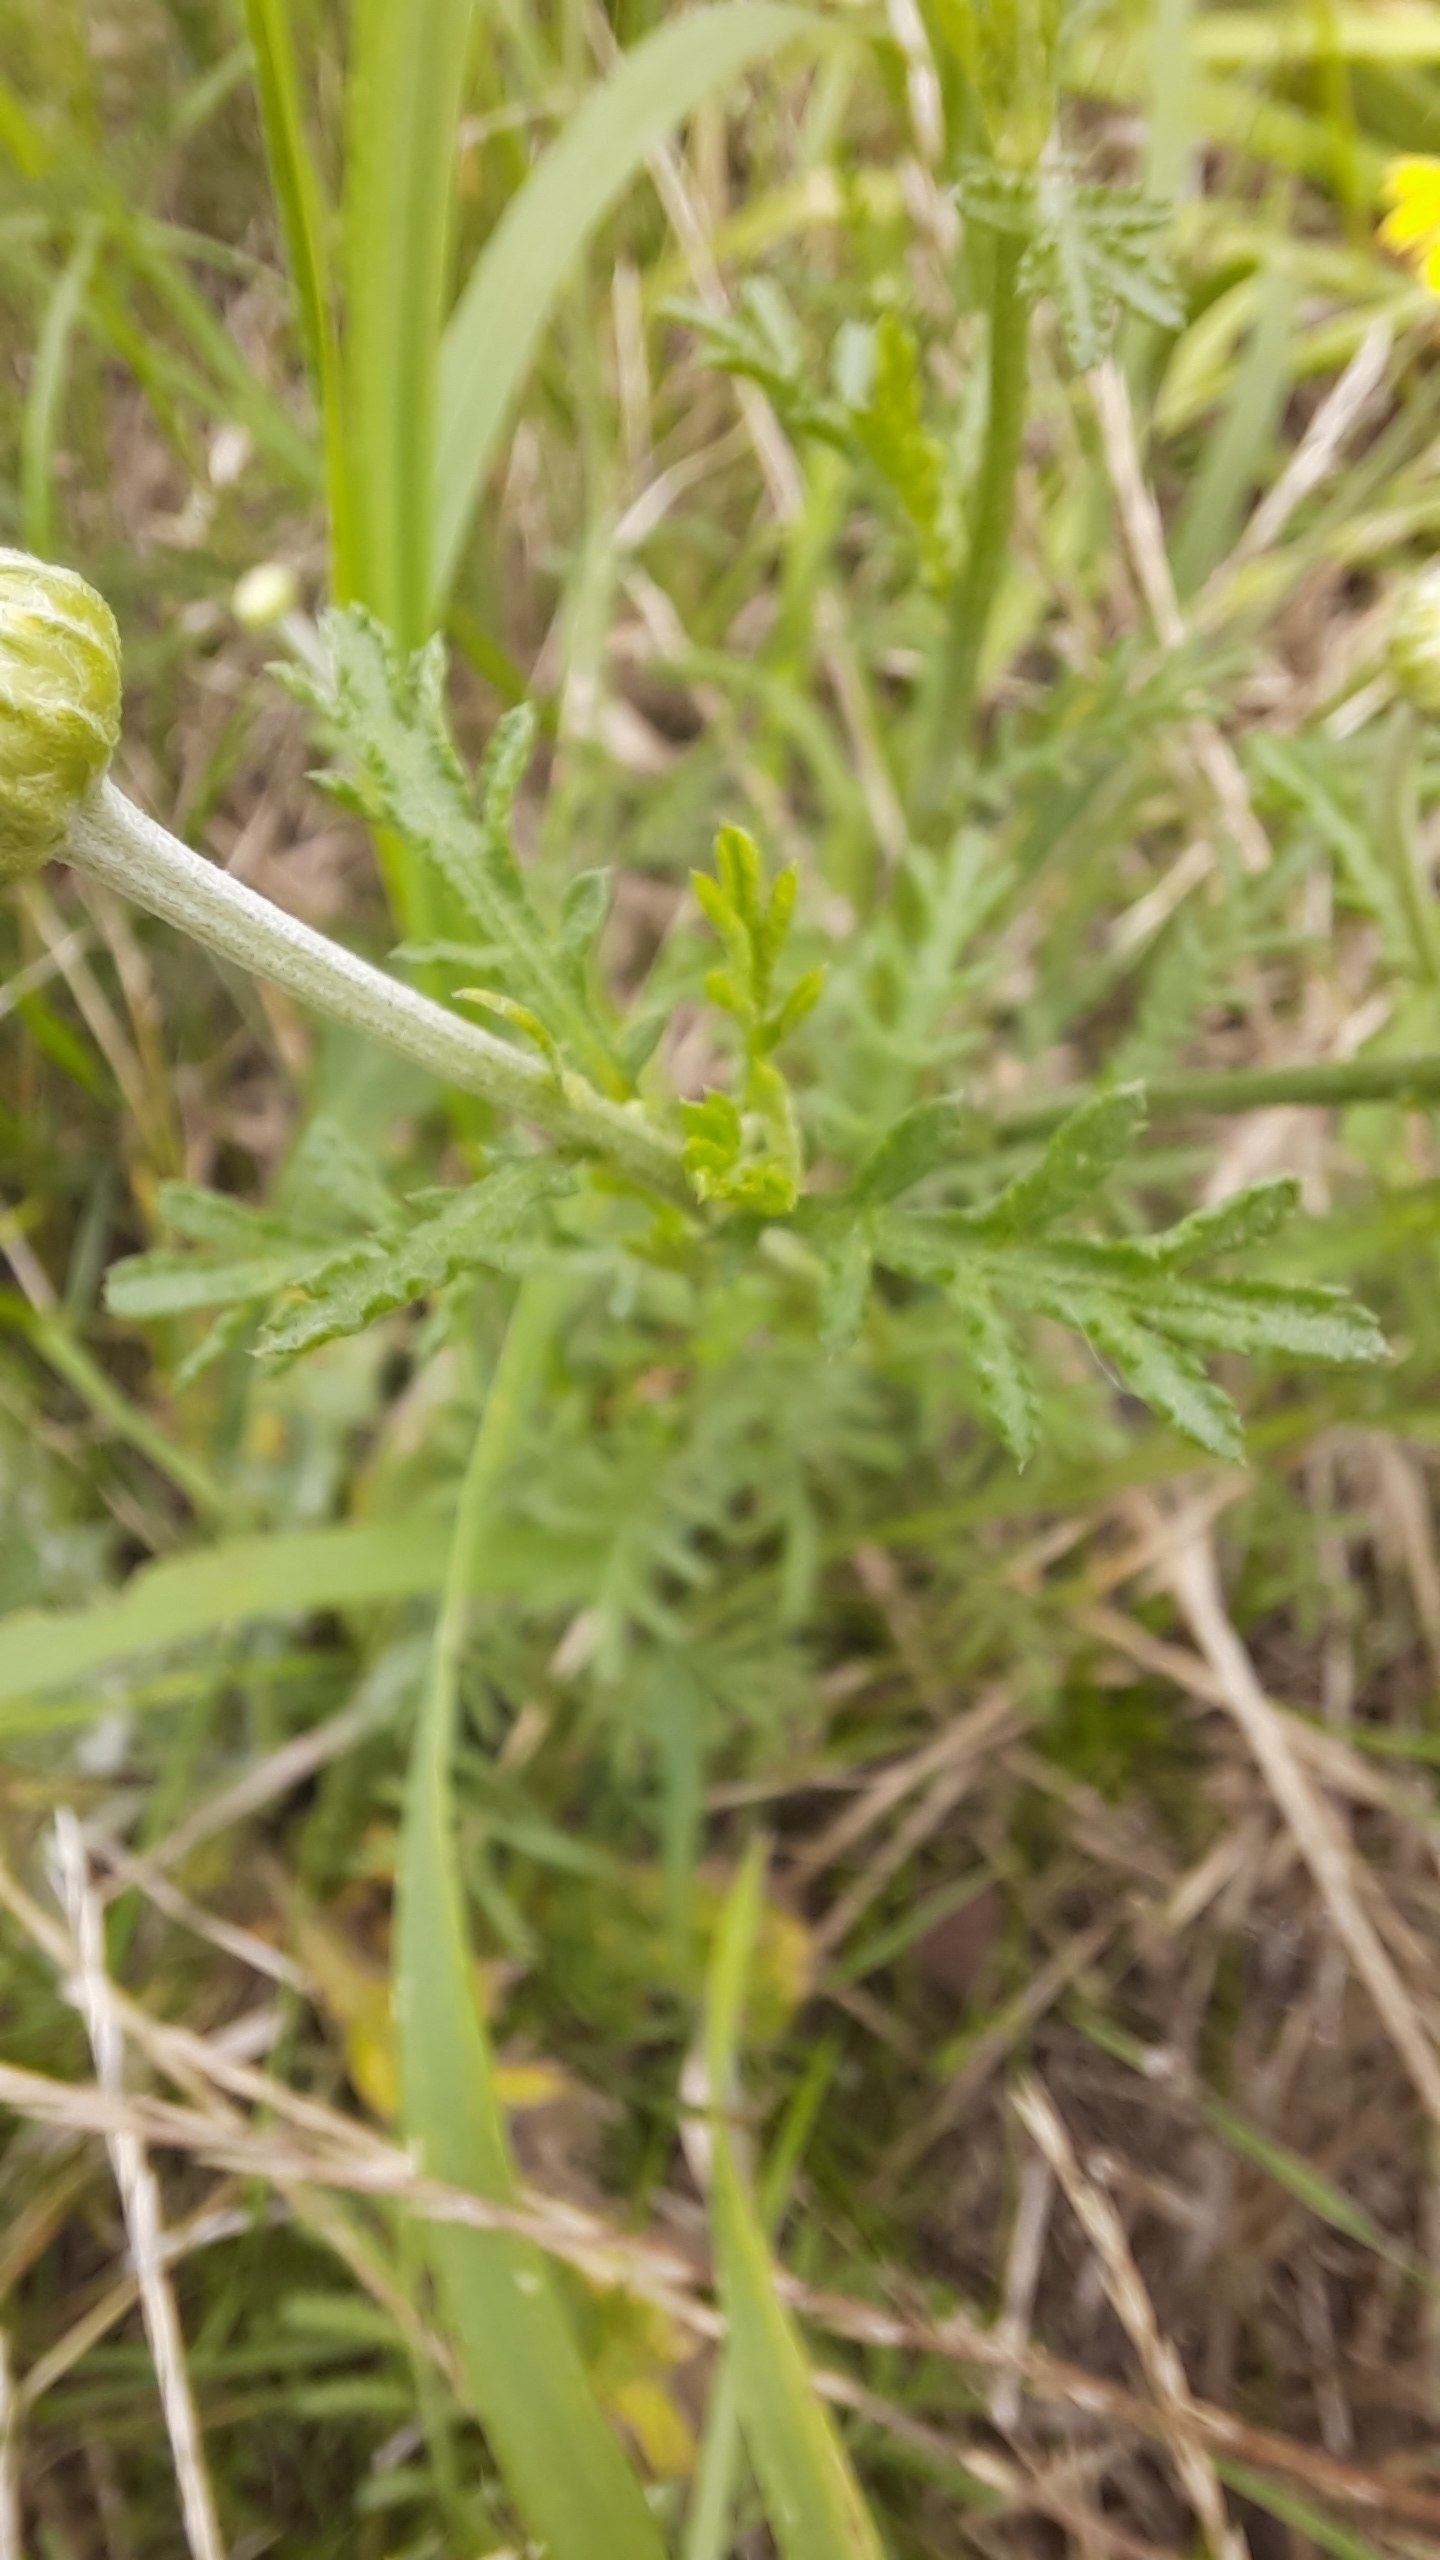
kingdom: Plantae
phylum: Tracheophyta
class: Magnoliopsida
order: Asterales
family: Asteraceae
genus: Cota
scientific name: Cota tinctoria
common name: Farve-gåseurt
